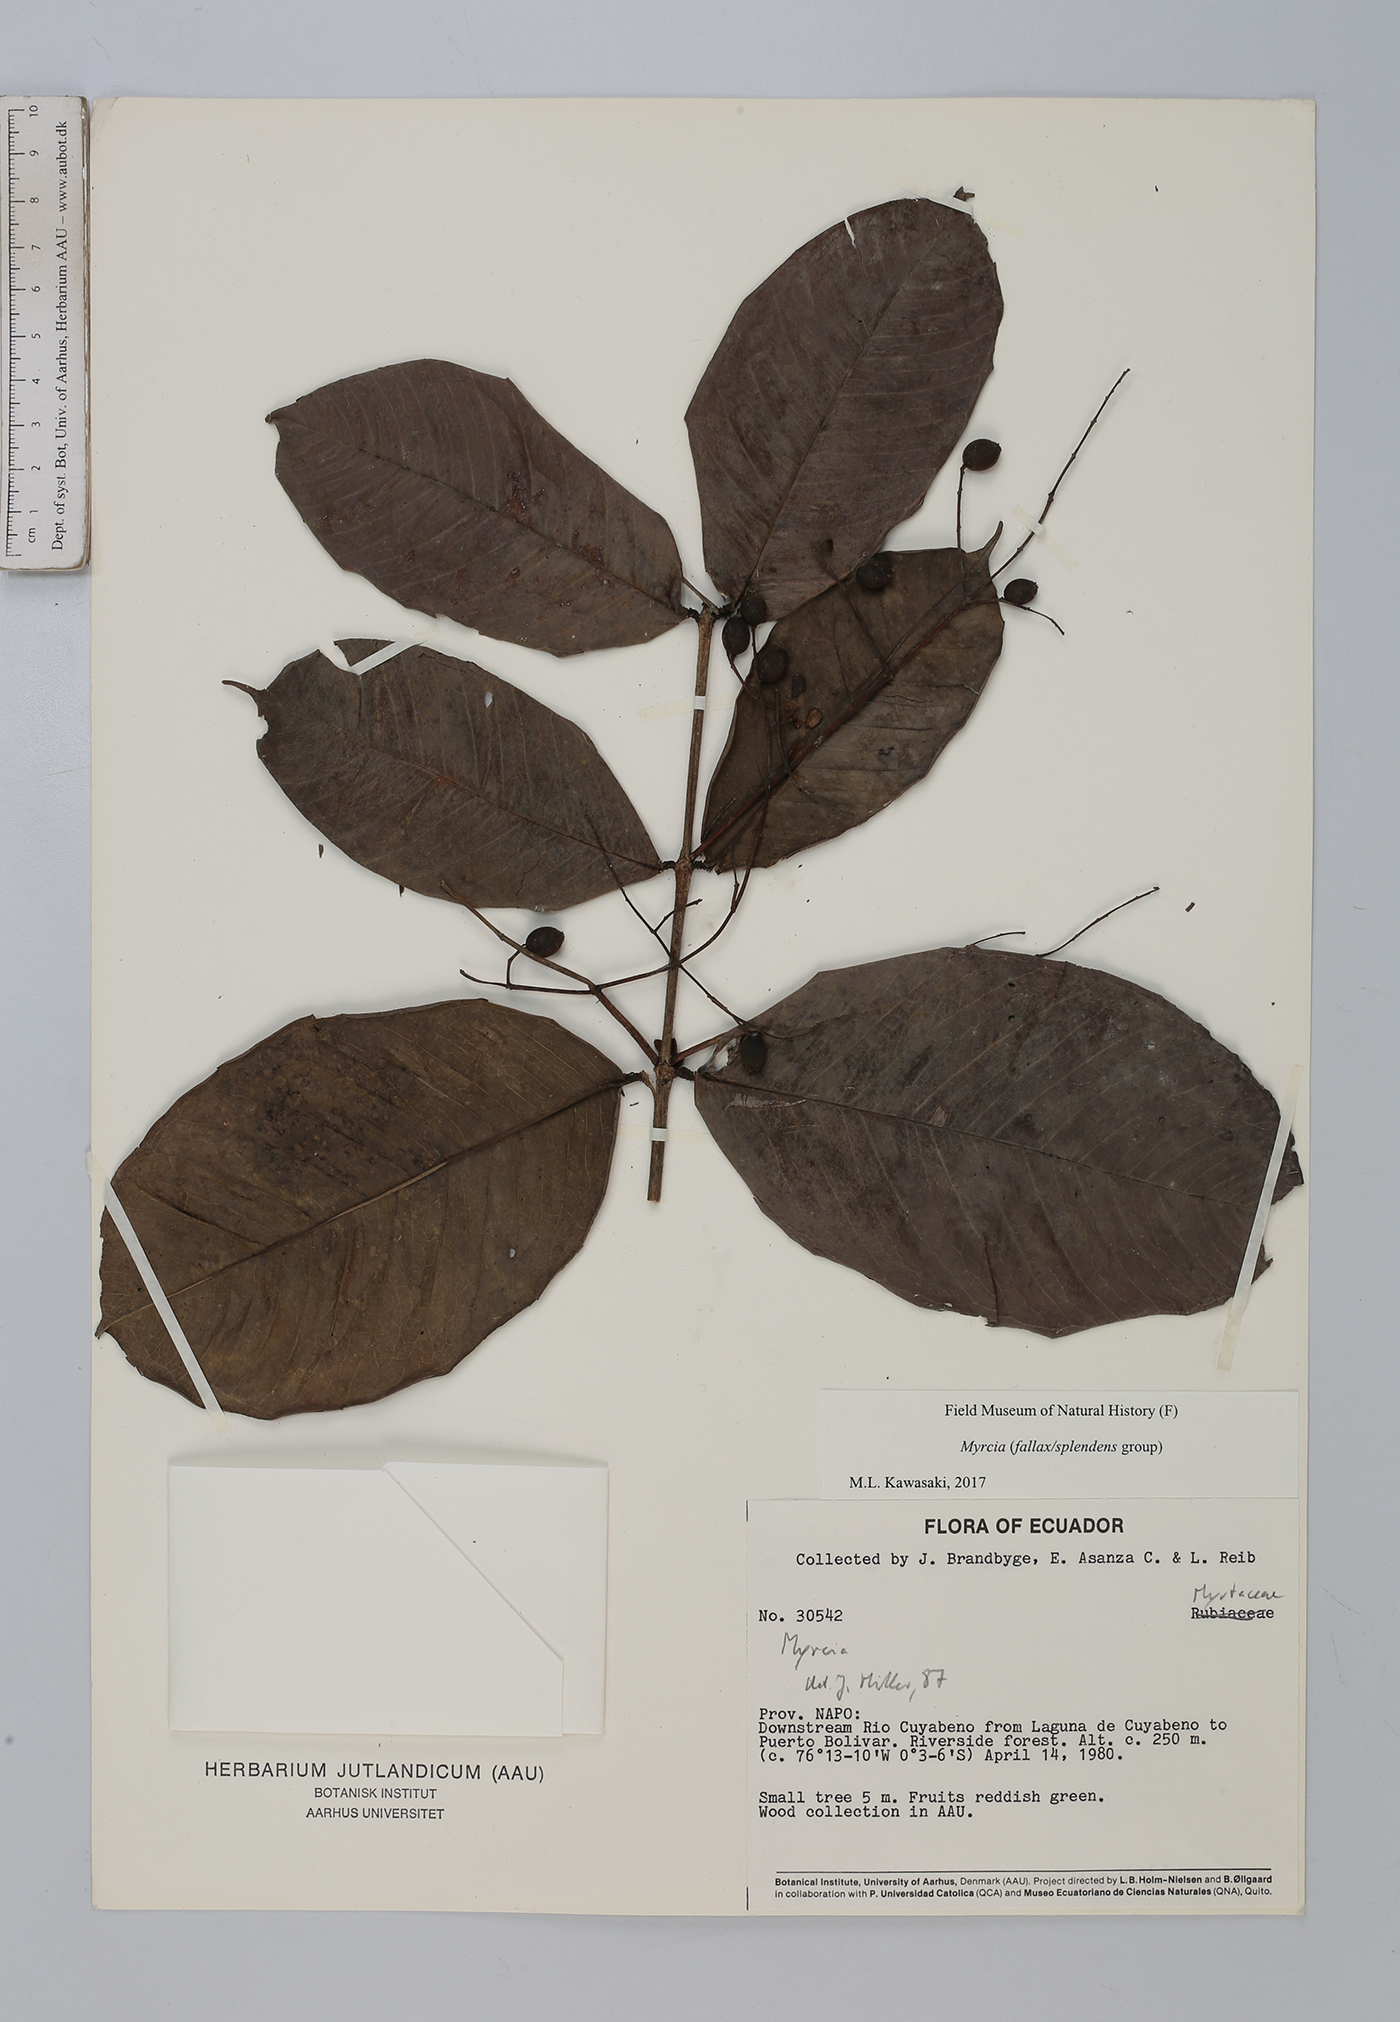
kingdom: Plantae
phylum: Tracheophyta
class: Magnoliopsida
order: Myrtales
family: Myrtaceae
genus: Myrcia
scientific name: Myrcia
